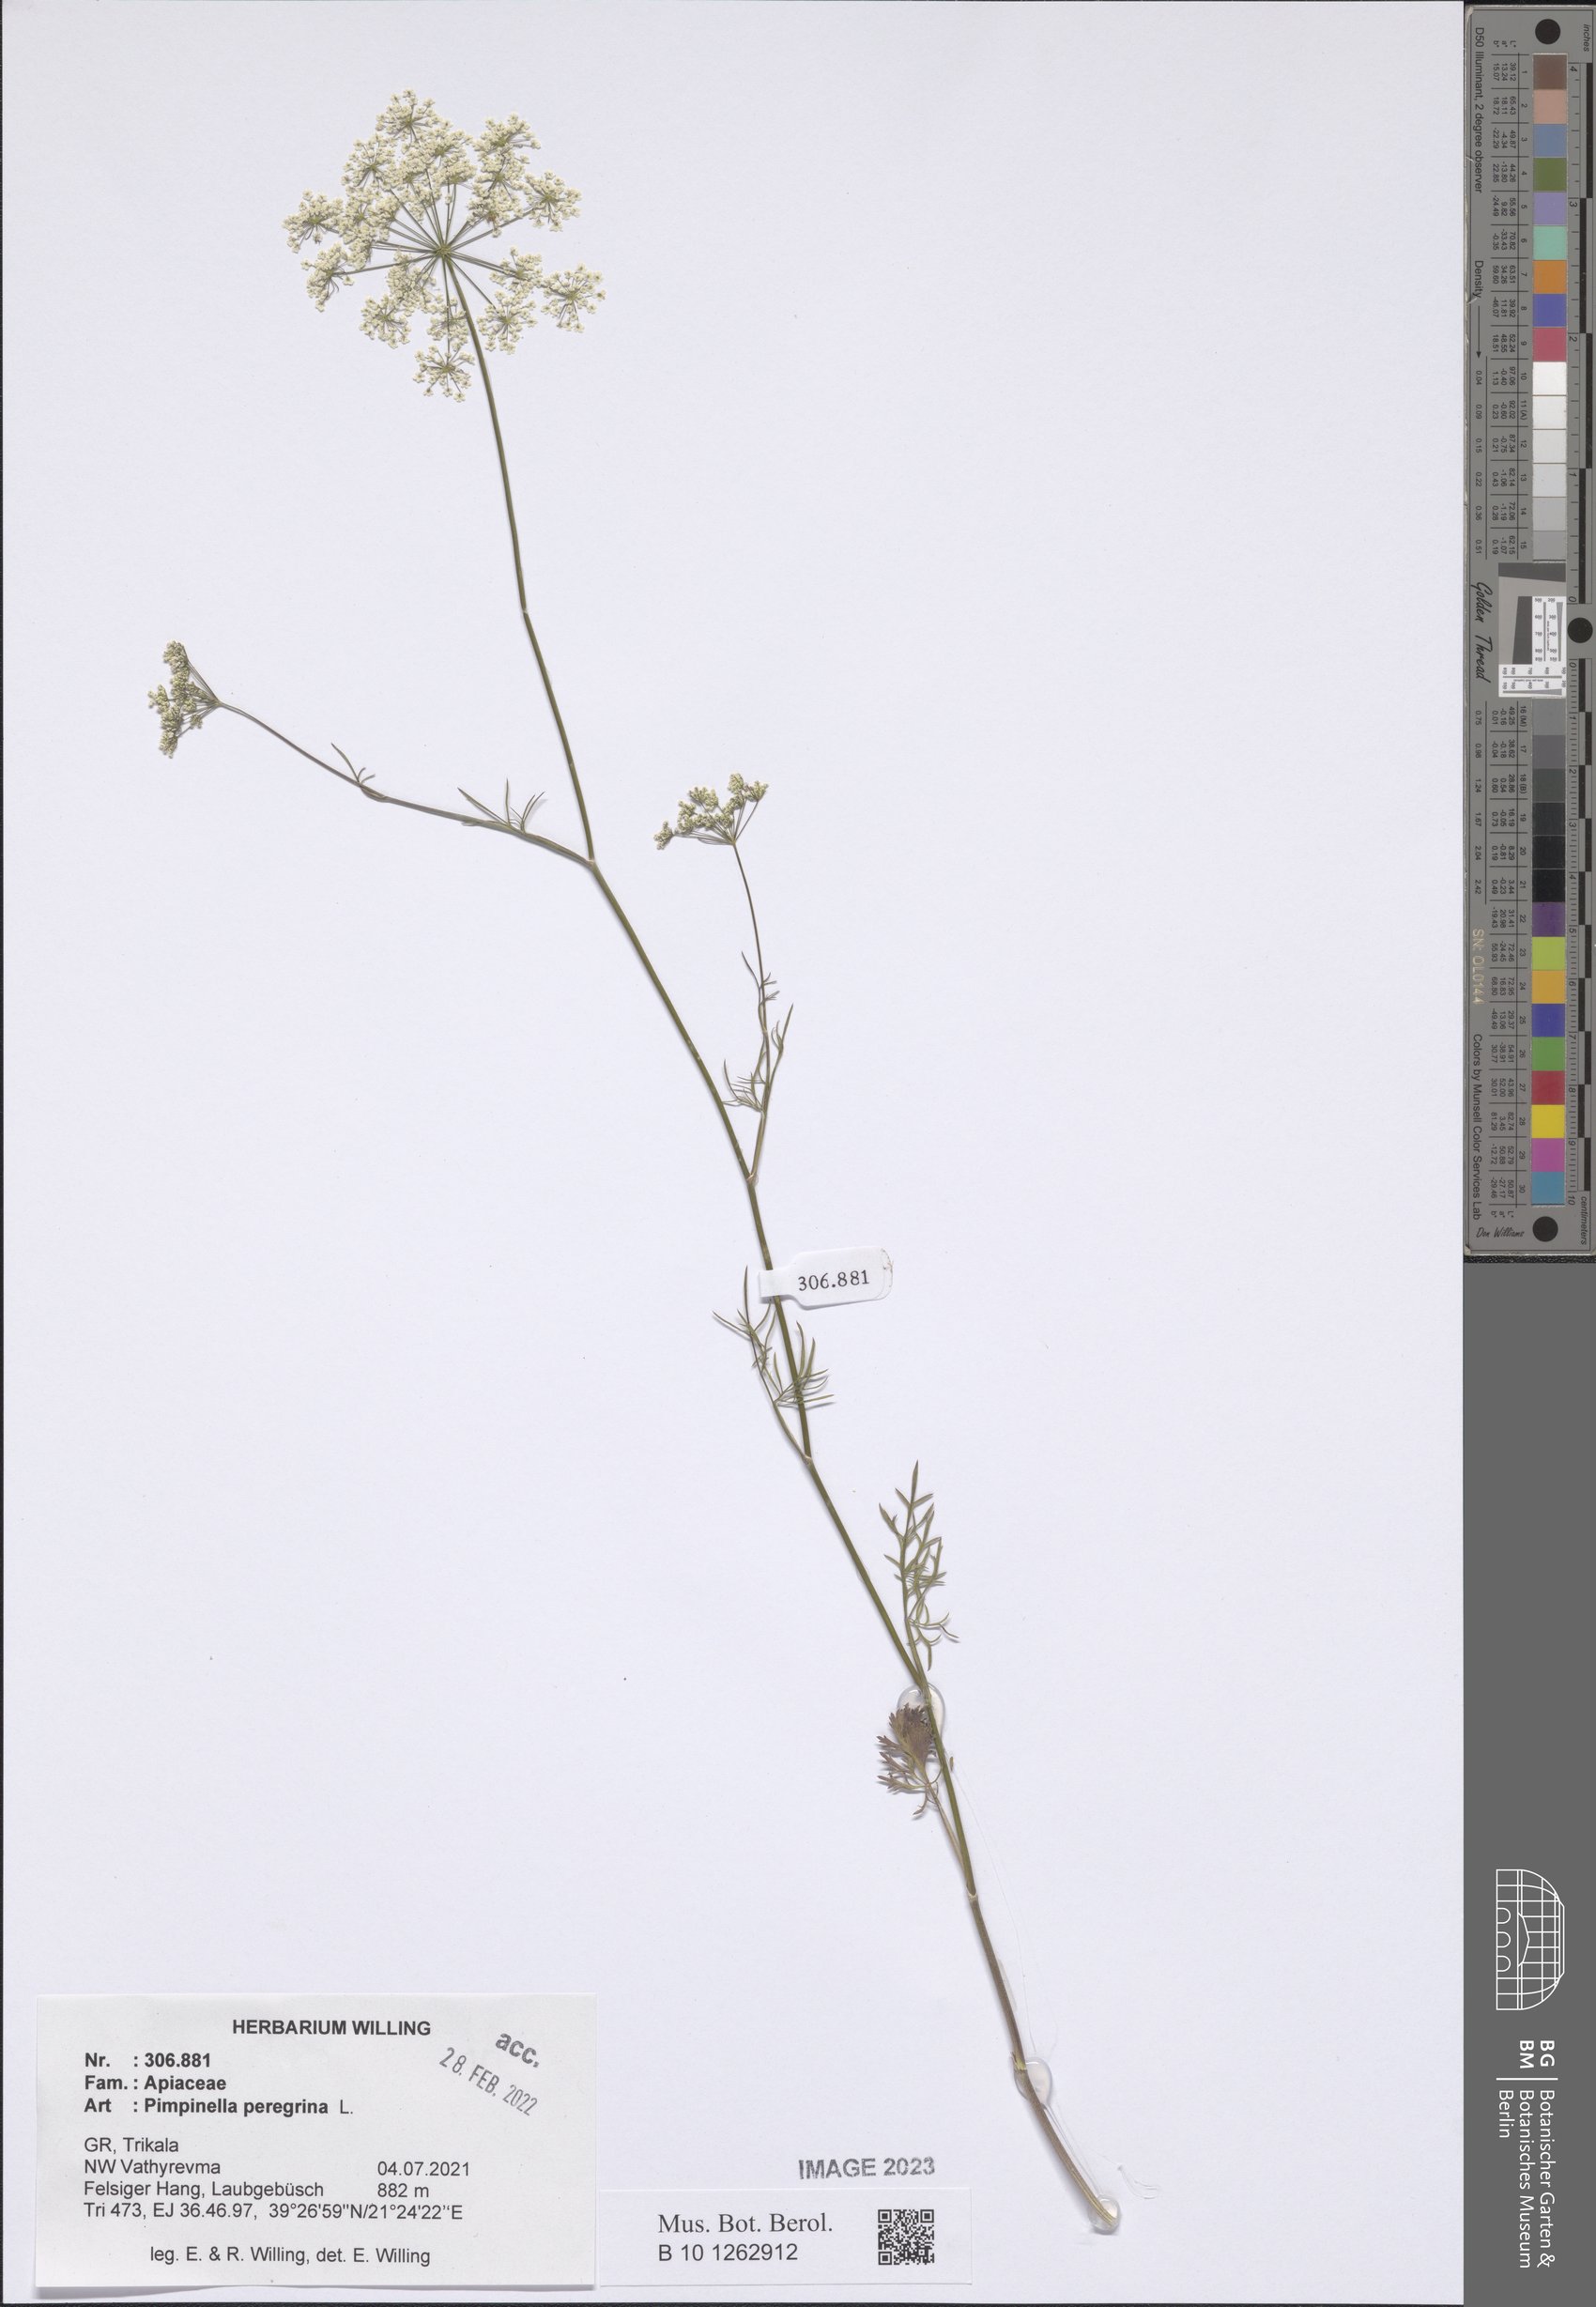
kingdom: Plantae
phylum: Tracheophyta
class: Magnoliopsida
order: Apiales
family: Apiaceae
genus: Pimpinella
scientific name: Pimpinella peregrina
